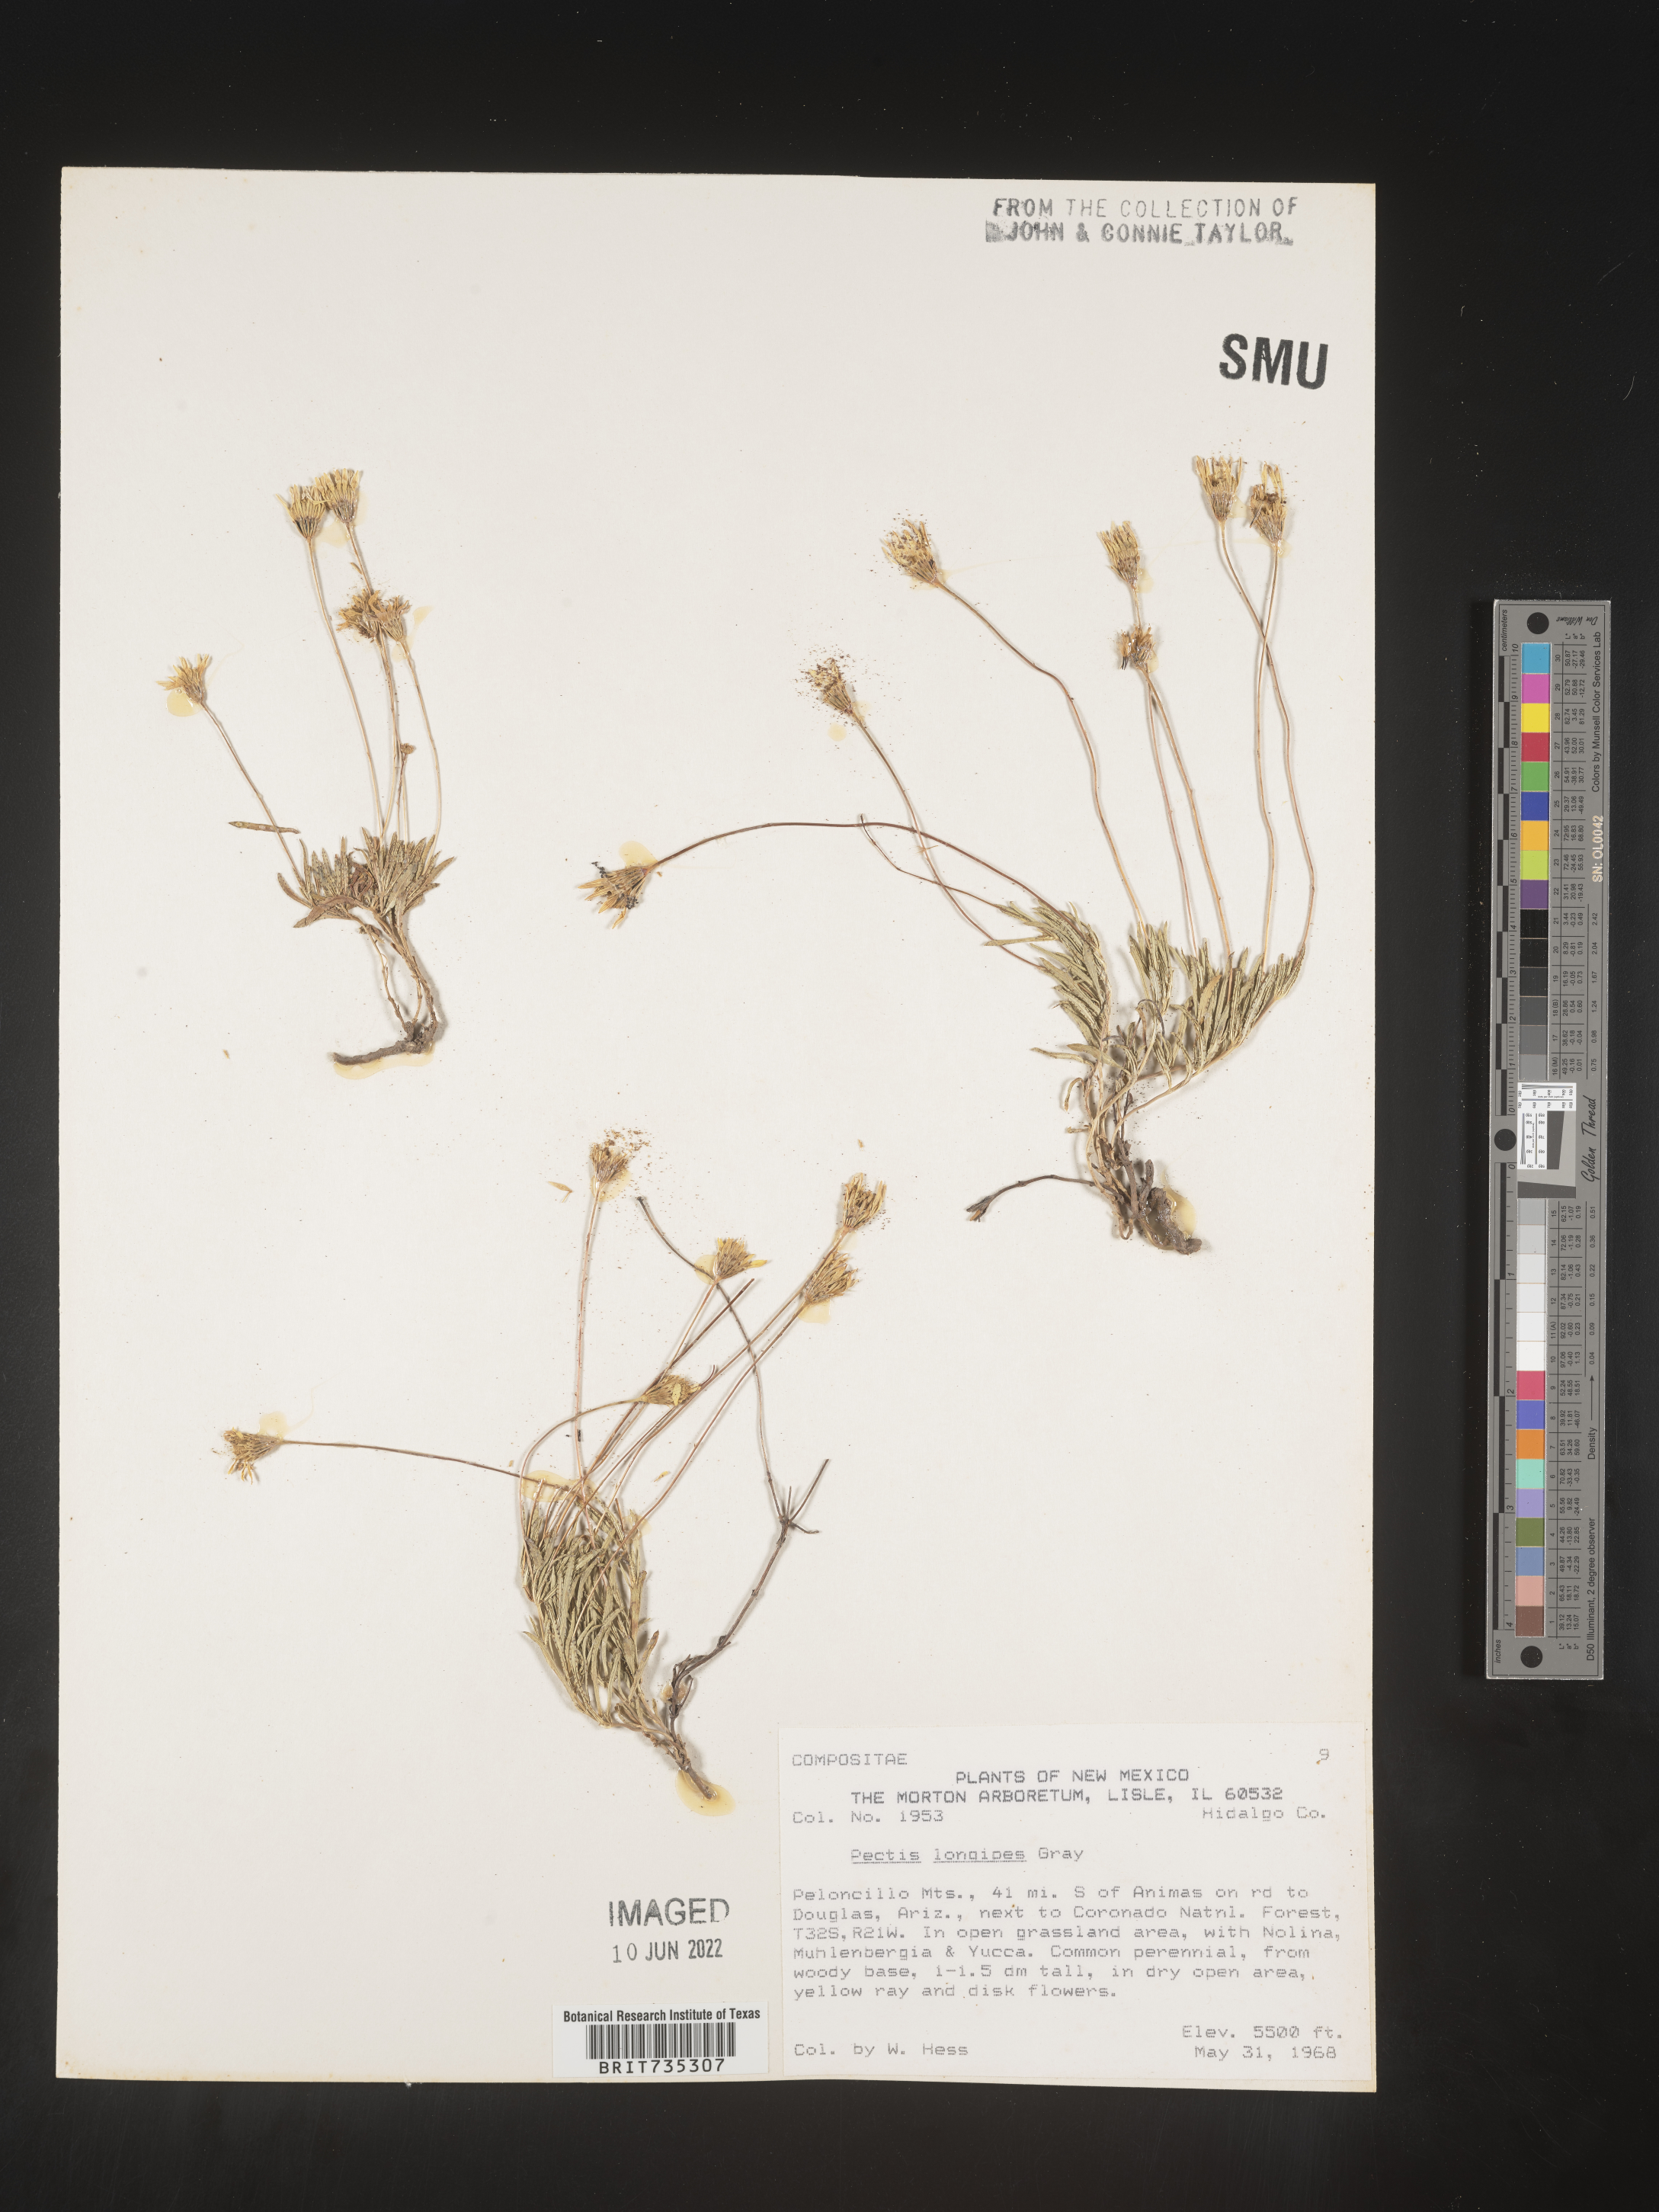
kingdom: Plantae
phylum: Tracheophyta
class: Magnoliopsida
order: Asterales
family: Asteraceae
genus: Pectis
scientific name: Pectis longipes
